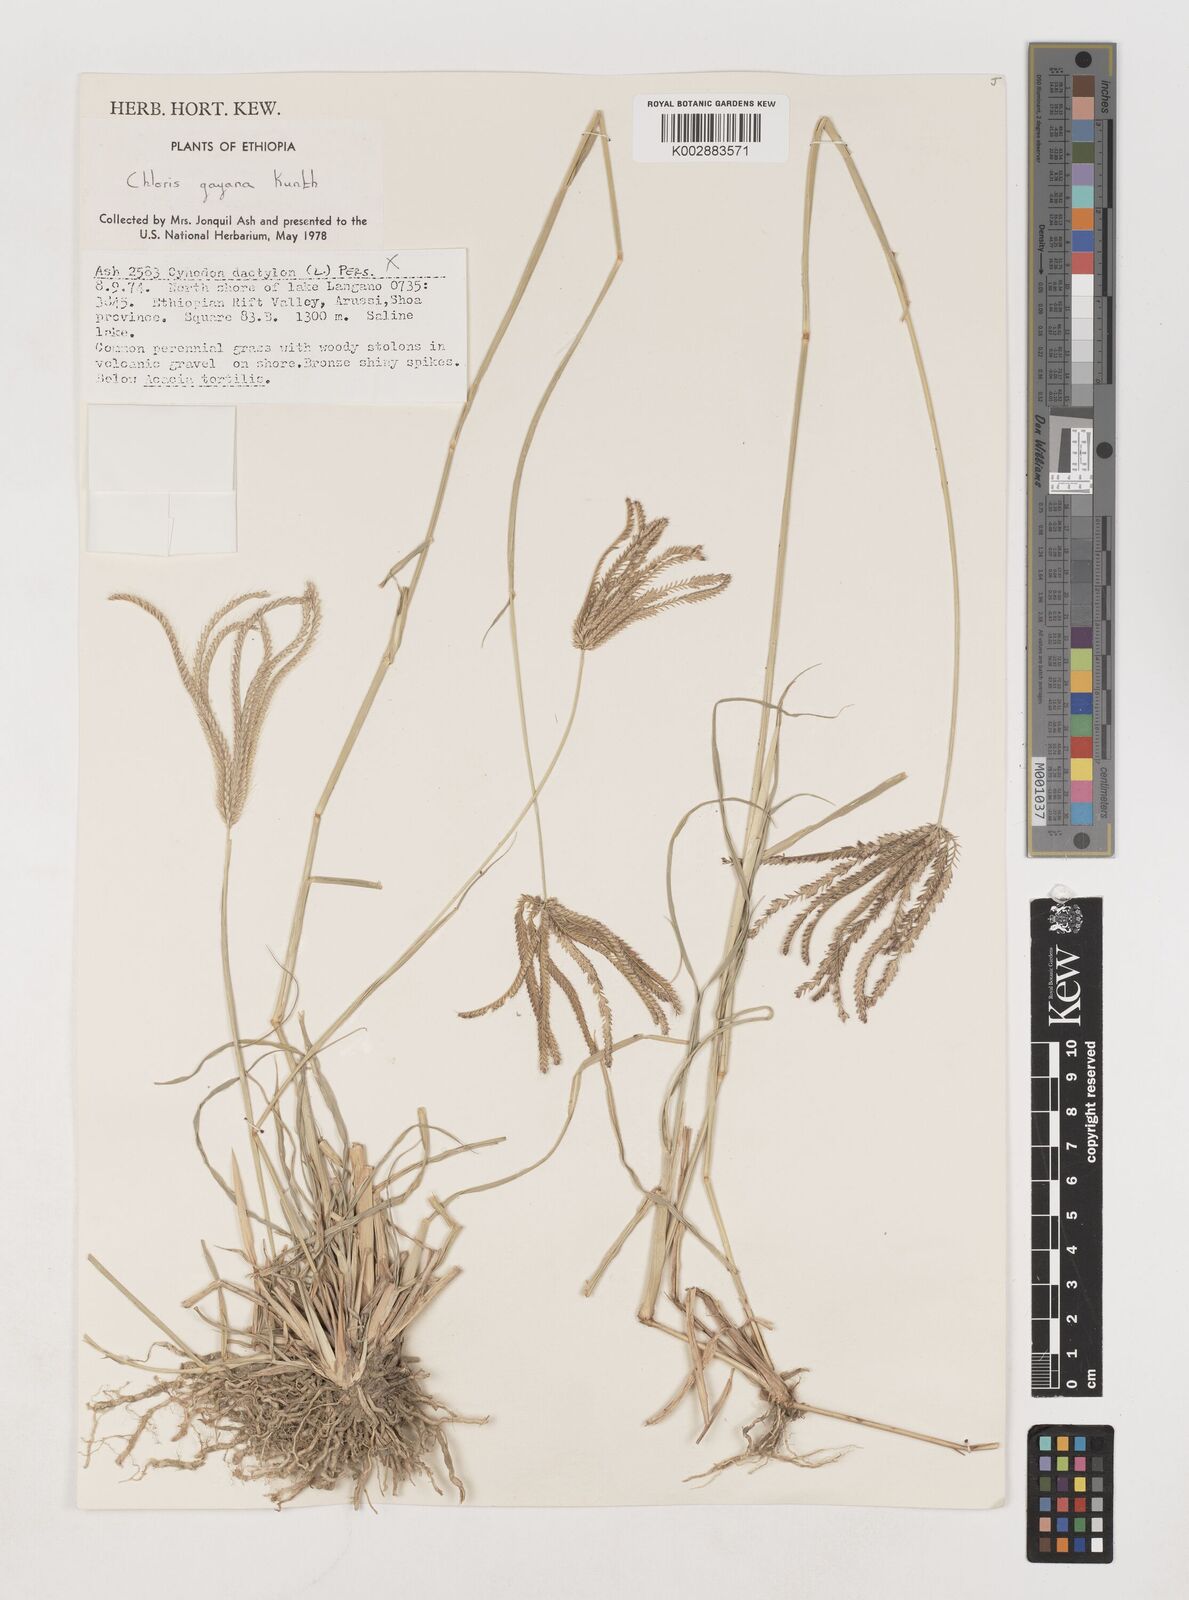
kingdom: Plantae
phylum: Tracheophyta
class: Liliopsida
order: Poales
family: Poaceae
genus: Chloris
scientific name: Chloris gayana
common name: Rhodes grass
